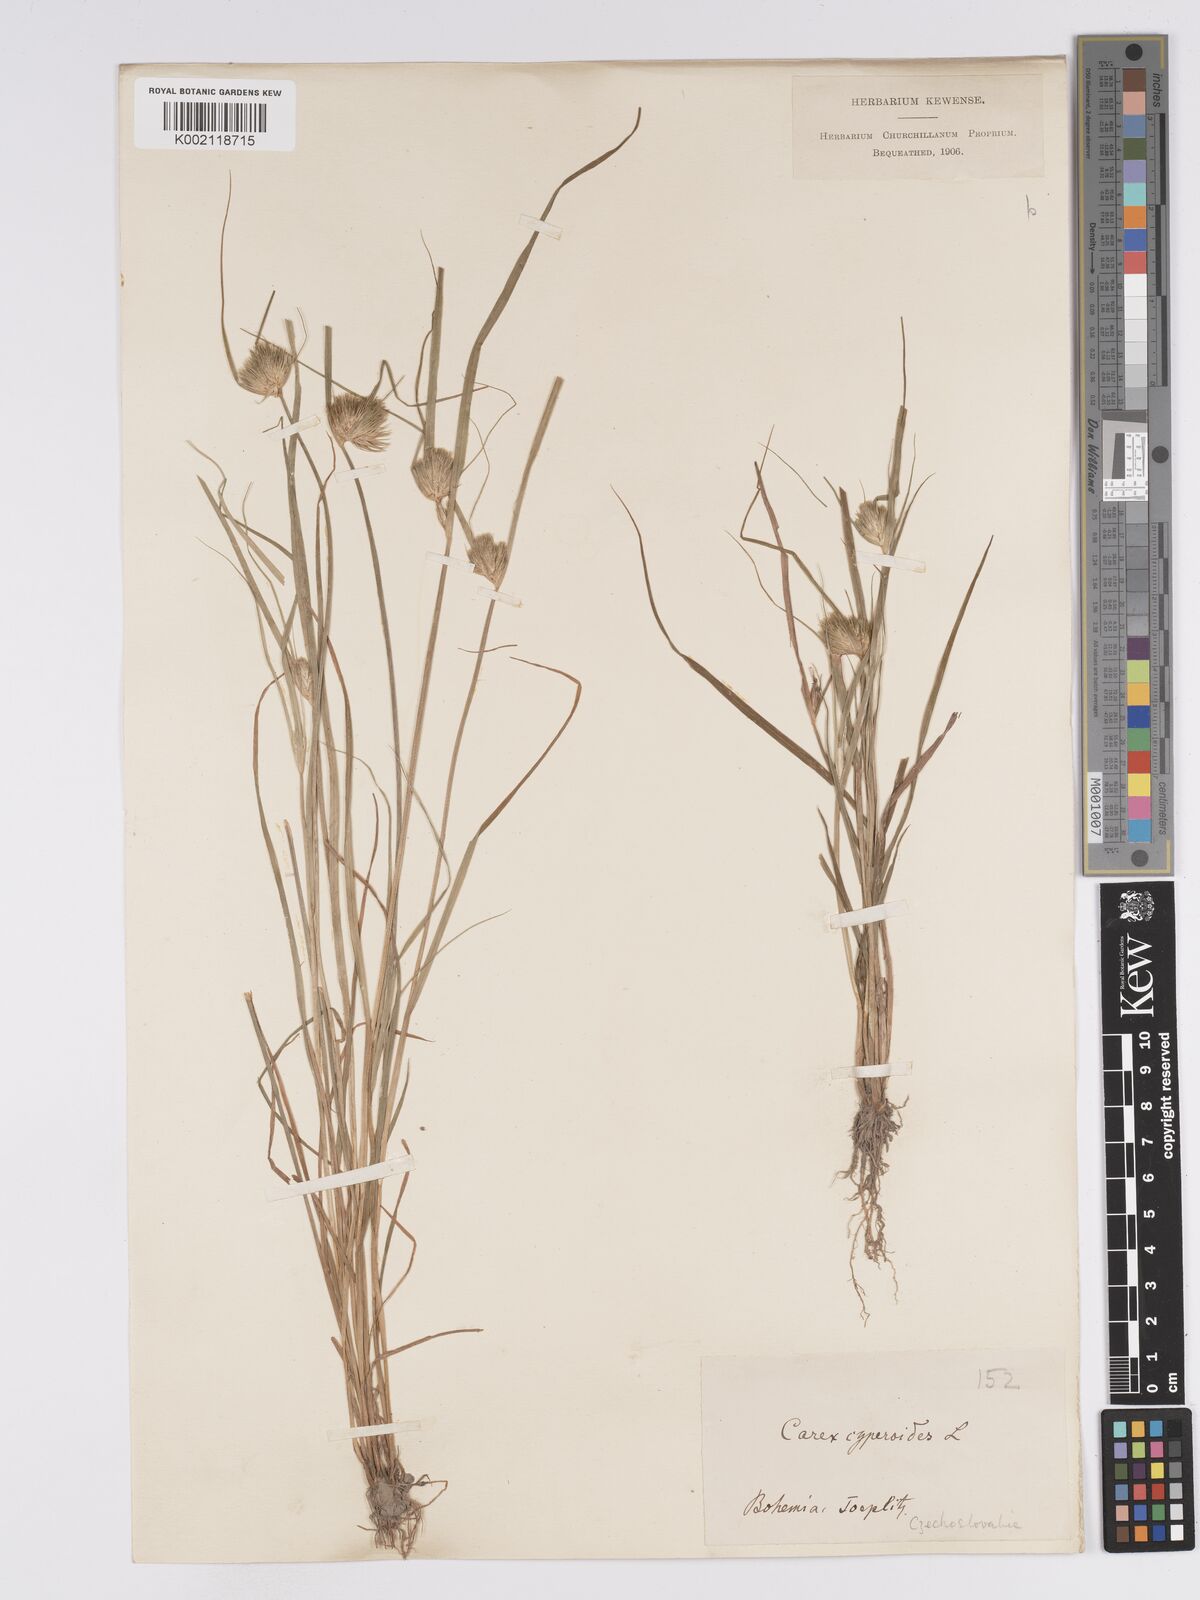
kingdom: Plantae
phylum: Tracheophyta
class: Liliopsida
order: Poales
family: Cyperaceae
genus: Carex
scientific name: Carex bohemica
